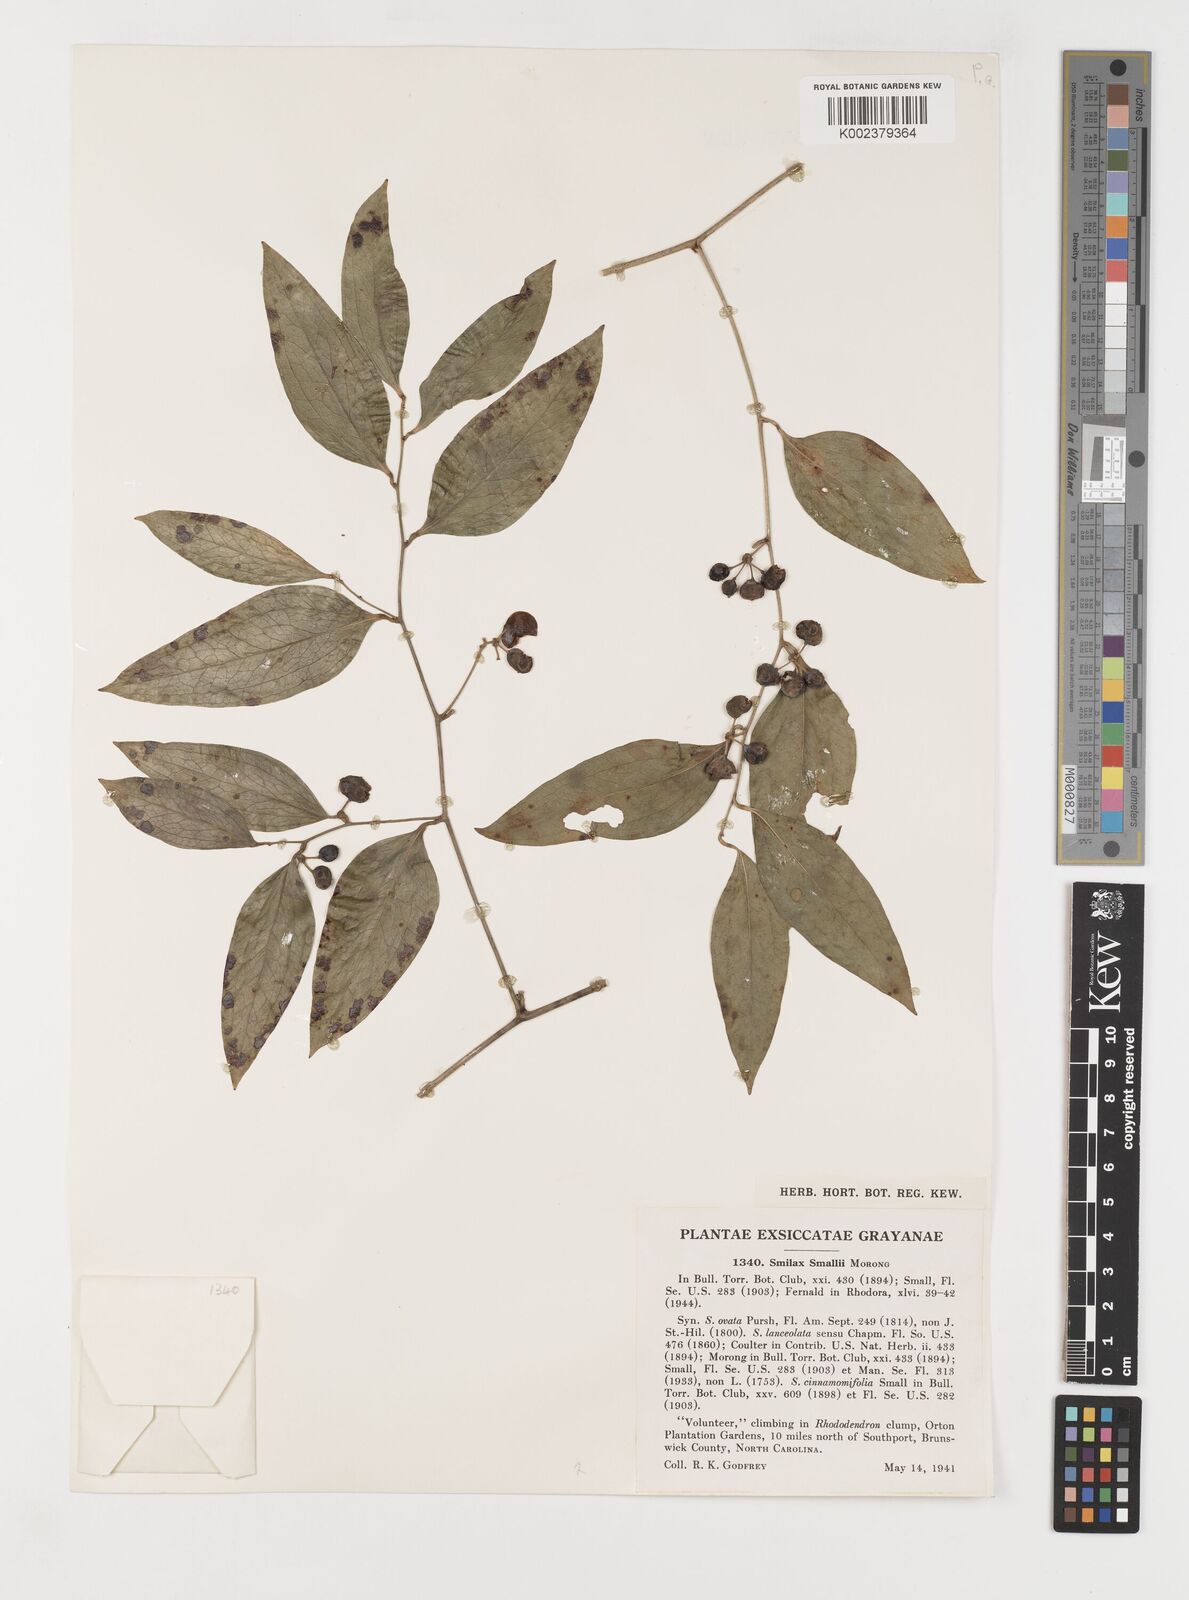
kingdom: Plantae
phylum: Tracheophyta
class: Liliopsida
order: Liliales
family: Smilacaceae
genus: Smilax
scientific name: Smilax maritima
